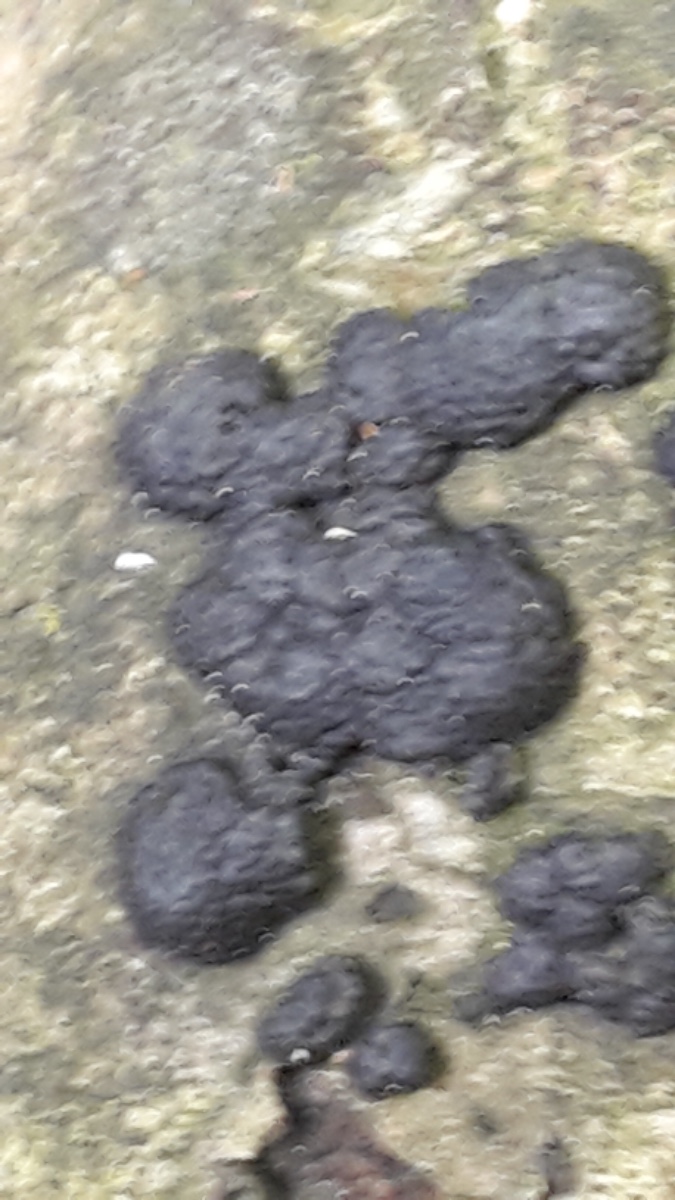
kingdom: Fungi
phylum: Ascomycota
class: Sordariomycetes
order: Xylariales
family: Hypoxylaceae
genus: Jackrogersella
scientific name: Jackrogersella cohaerens
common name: sammenflydende kulbær
